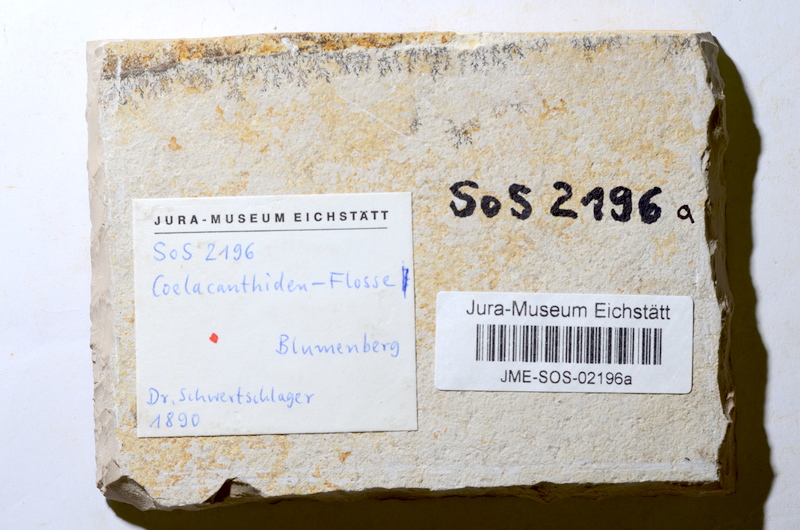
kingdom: Animalia
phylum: Chordata
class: Coelacanthi
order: Coelacanthiformes
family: Coelacanthidae
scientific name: Coelacanthidae
